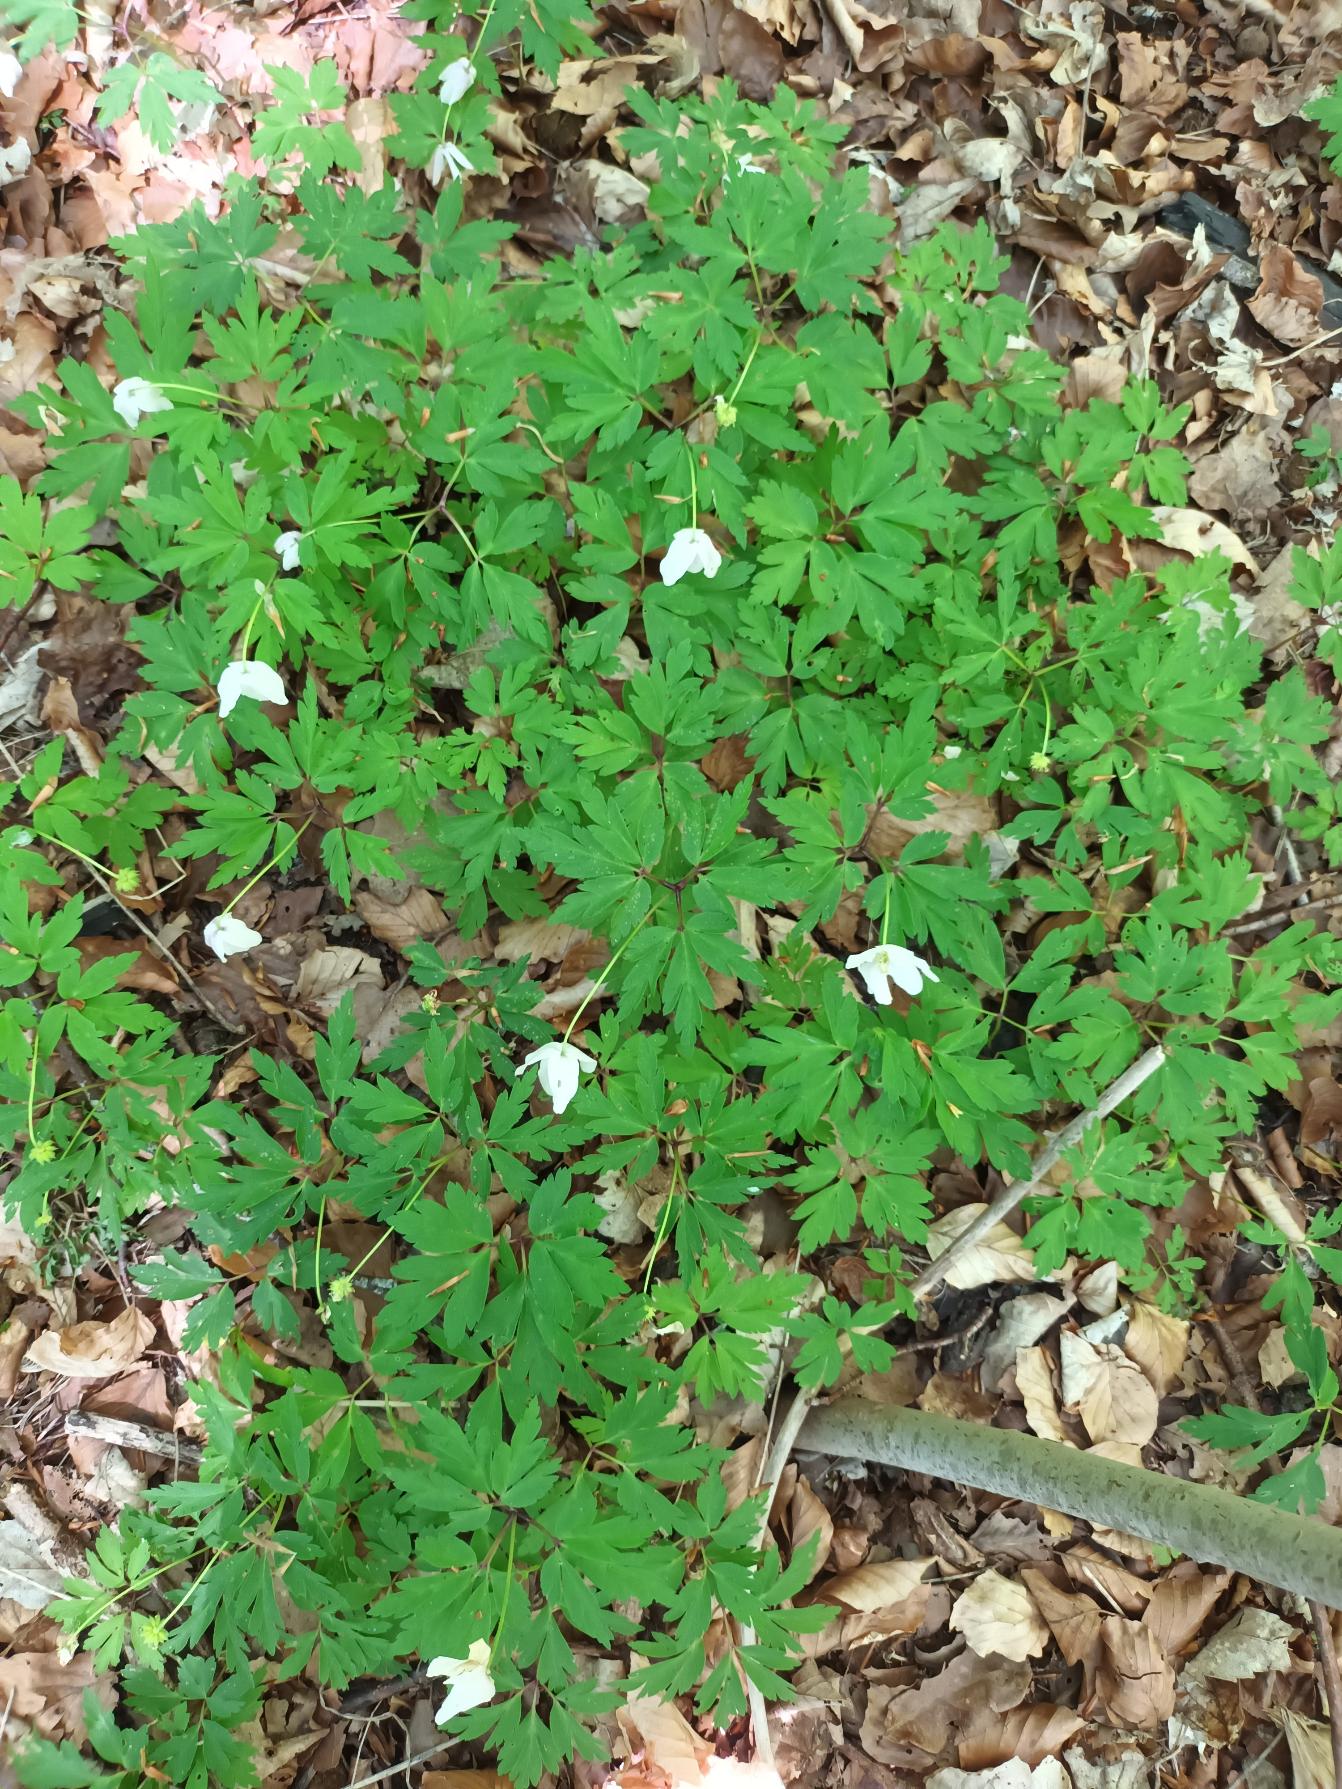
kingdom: Plantae
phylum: Tracheophyta
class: Magnoliopsida
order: Ranunculales
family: Ranunculaceae
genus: Anemone
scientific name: Anemone nemorosa
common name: Hvid anemone
